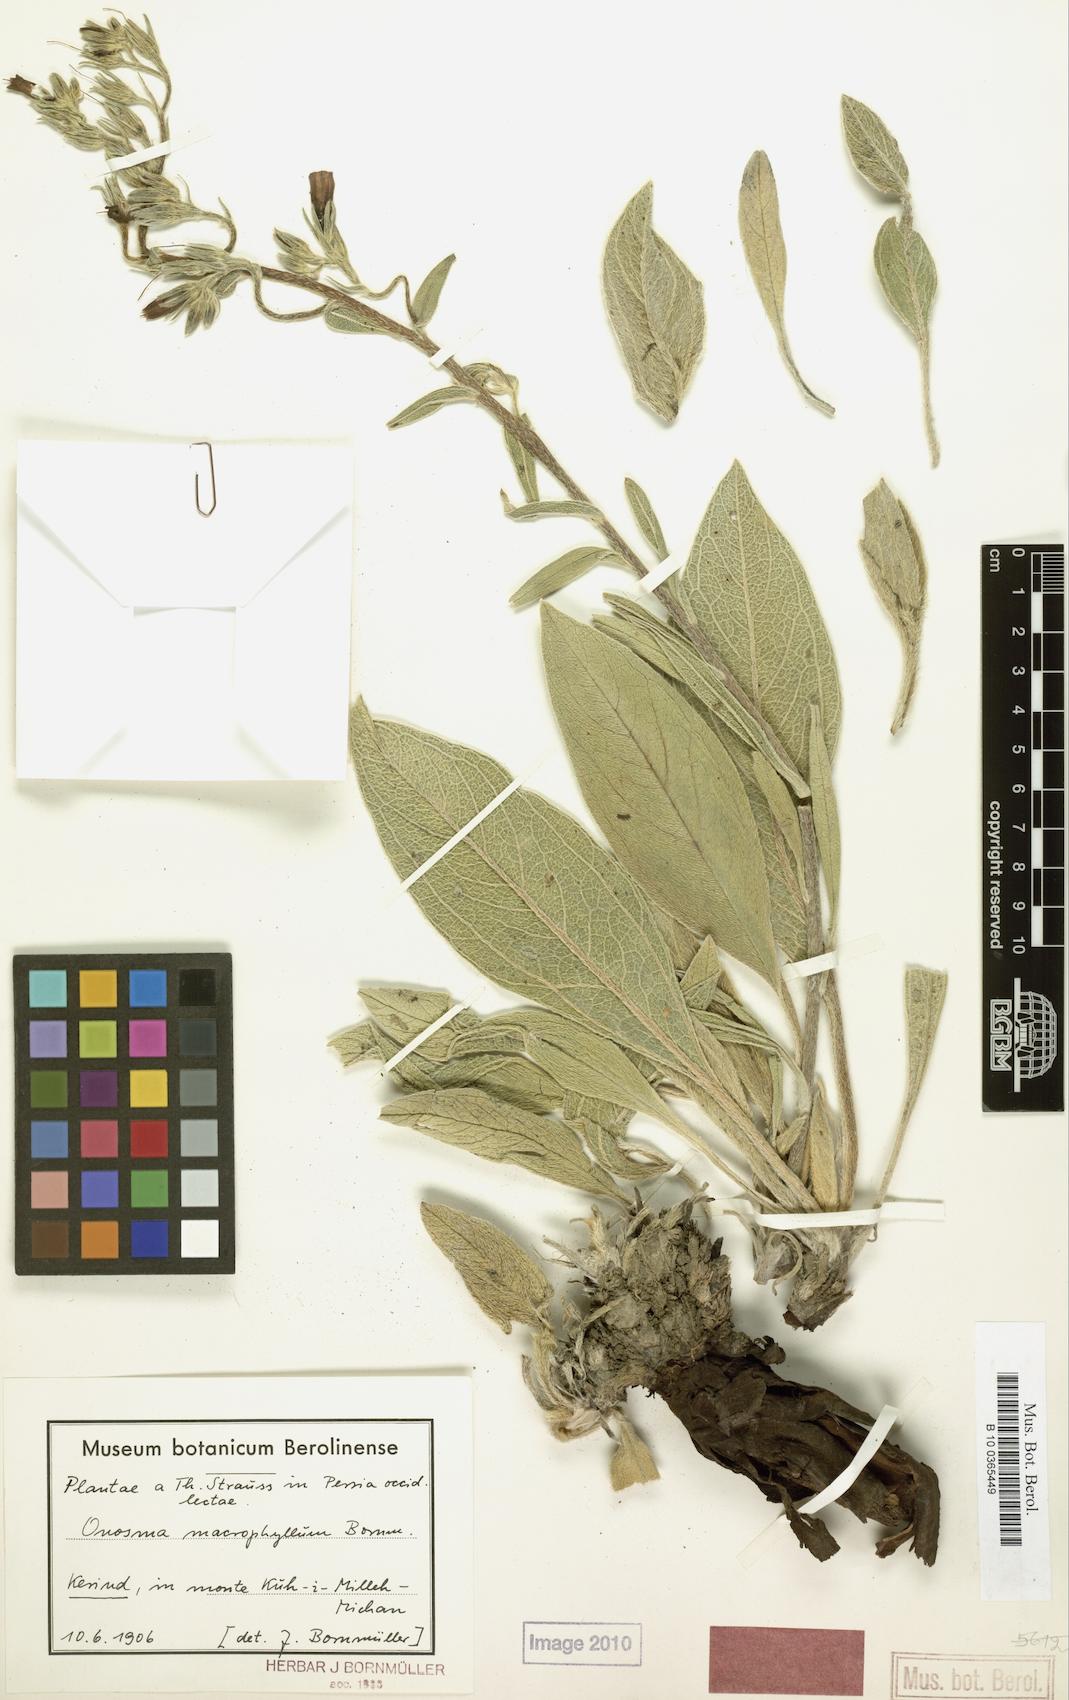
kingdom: Plantae
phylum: Tracheophyta
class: Magnoliopsida
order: Boraginales
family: Boraginaceae
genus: Onosma
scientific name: Onosma macrophylla
